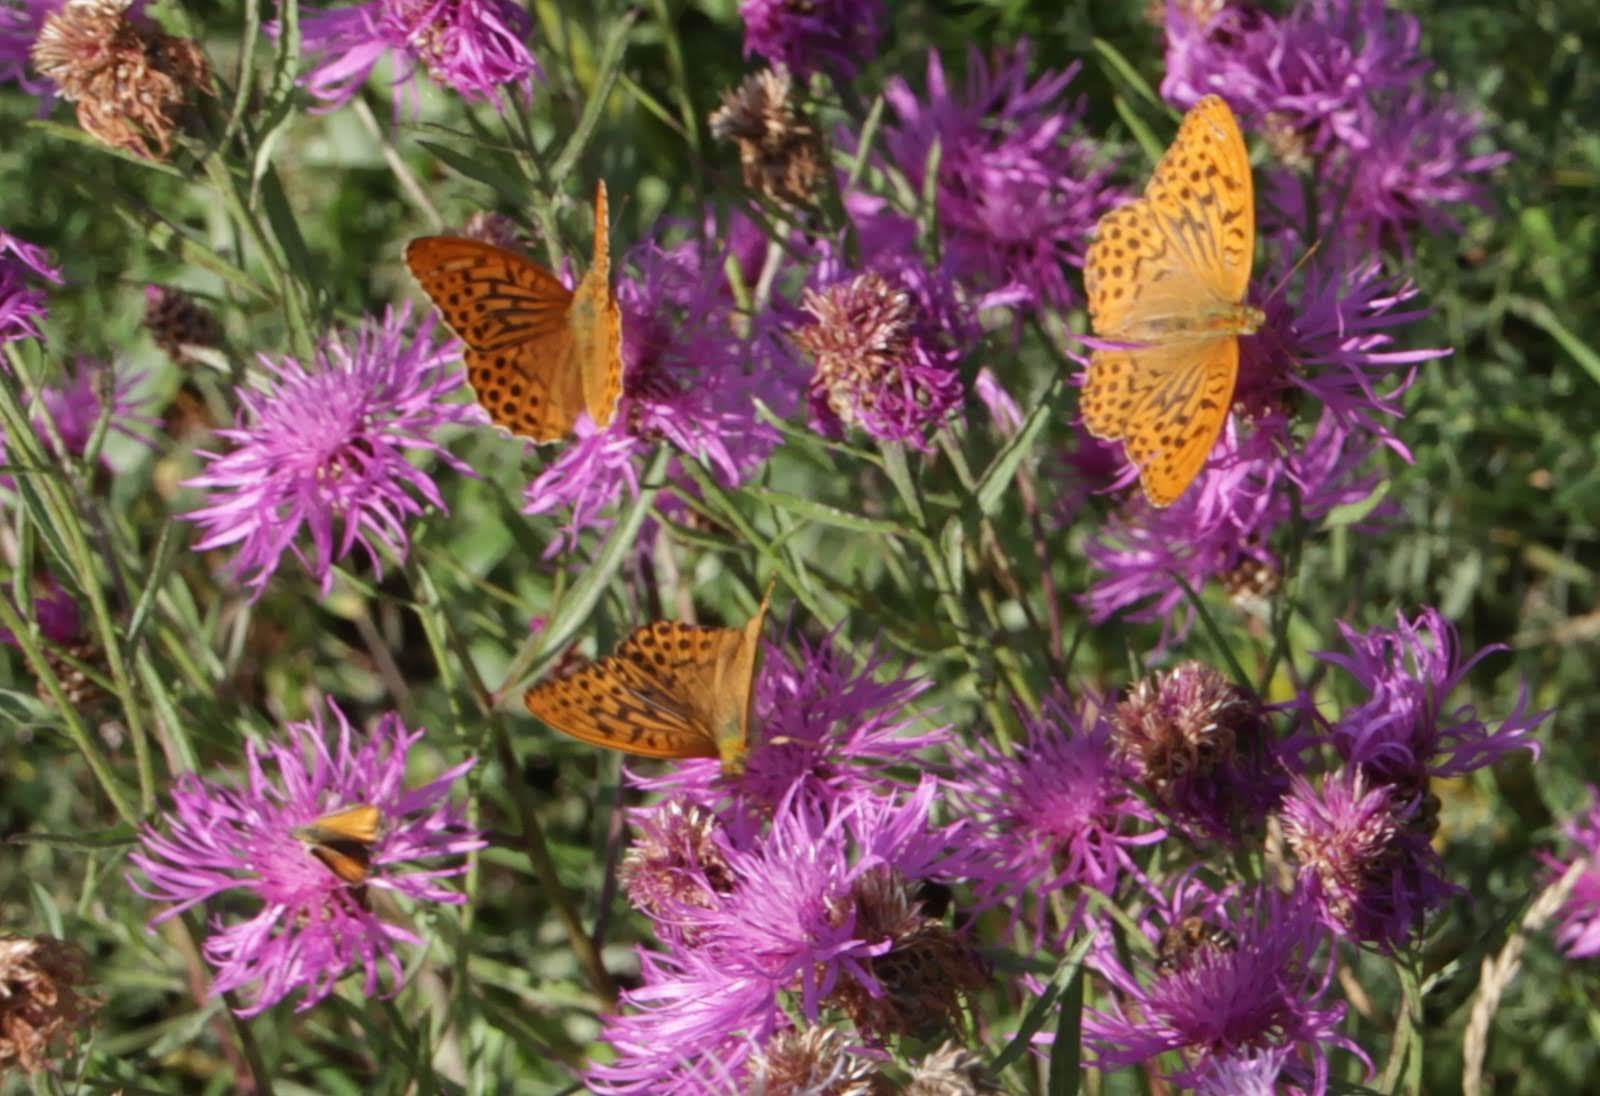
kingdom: Animalia
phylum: Arthropoda
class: Insecta
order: Lepidoptera
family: Nymphalidae
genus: Argynnis
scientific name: Argynnis paphia
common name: Silver-washed fritillary
